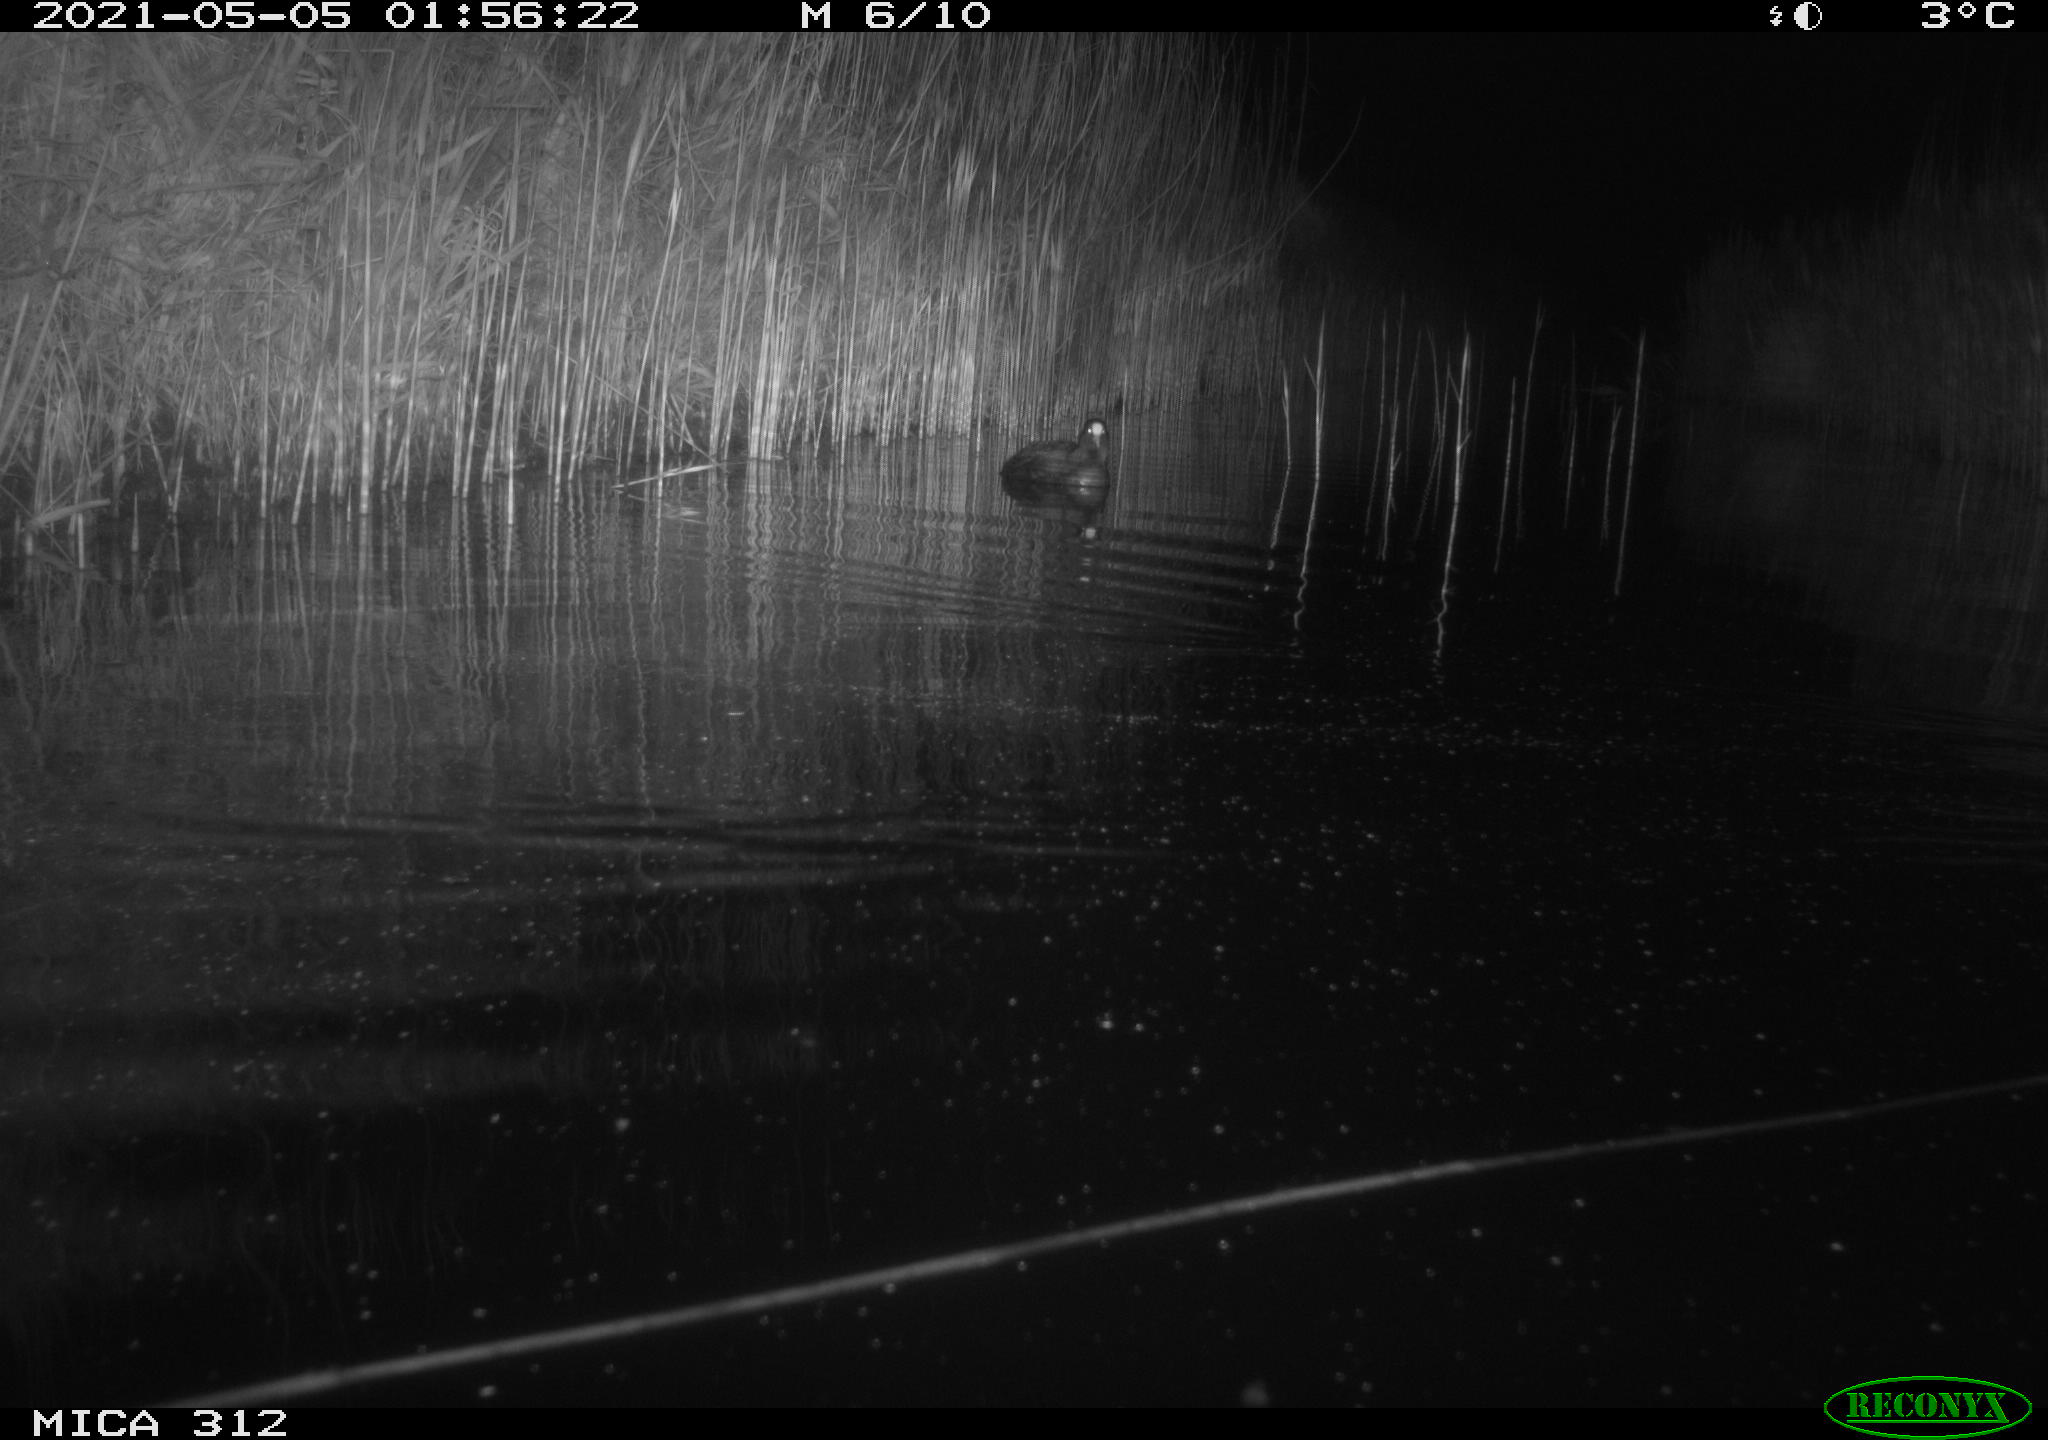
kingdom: Animalia
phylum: Chordata
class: Mammalia
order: Rodentia
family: Muridae
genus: Rattus
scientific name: Rattus norvegicus
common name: Brown rat
